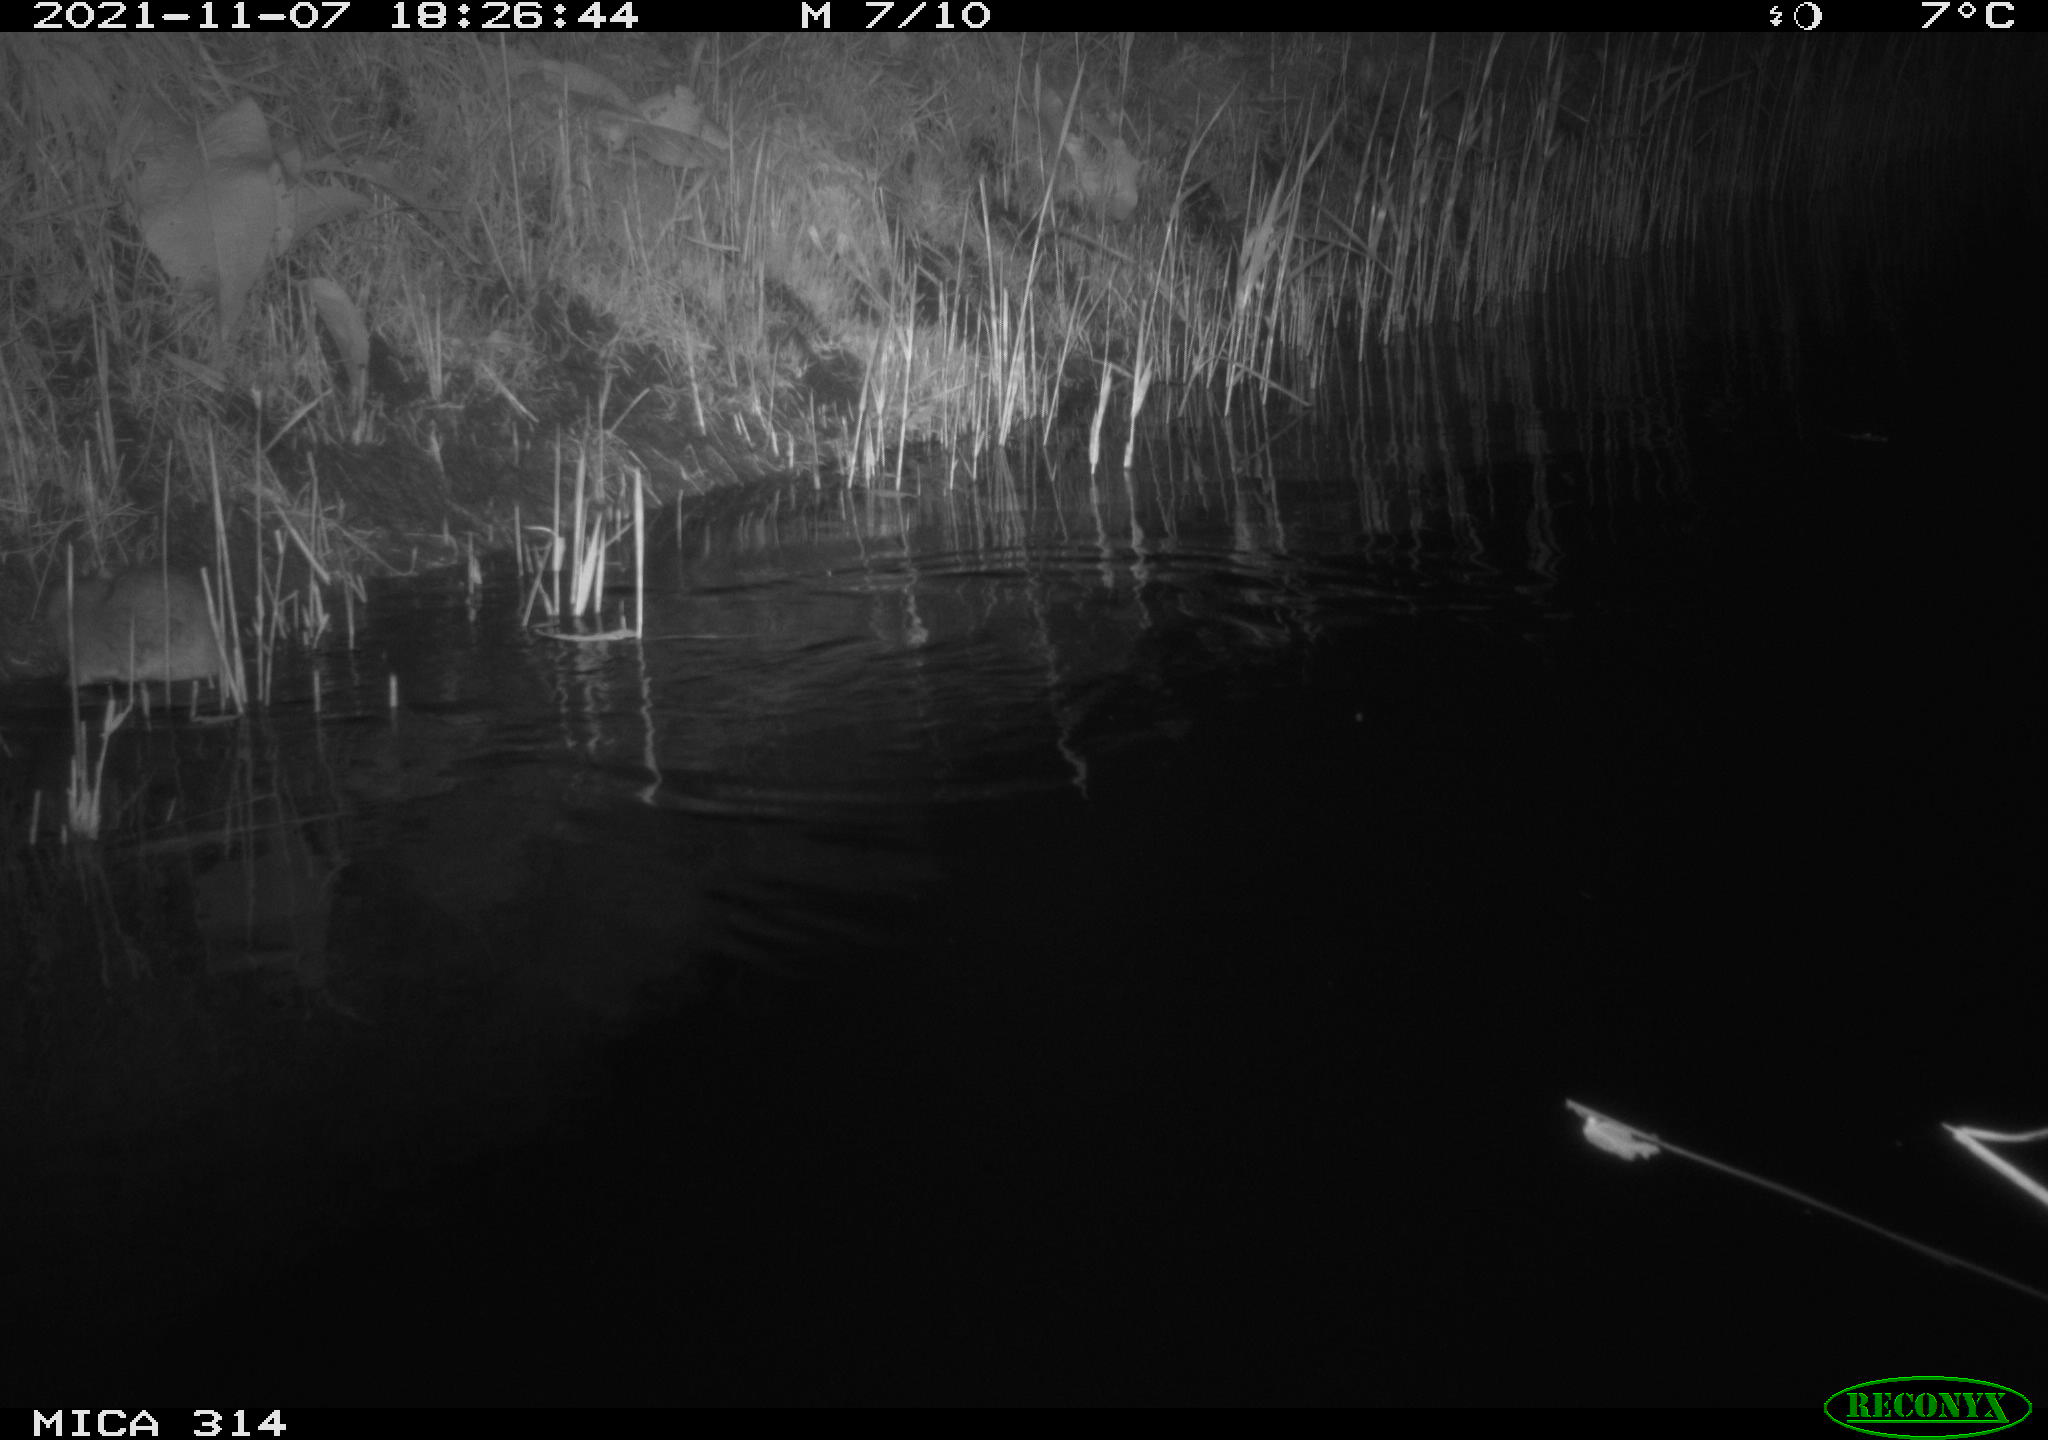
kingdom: Animalia
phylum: Chordata
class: Mammalia
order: Rodentia
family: Muridae
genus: Rattus
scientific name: Rattus norvegicus
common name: Brown rat
